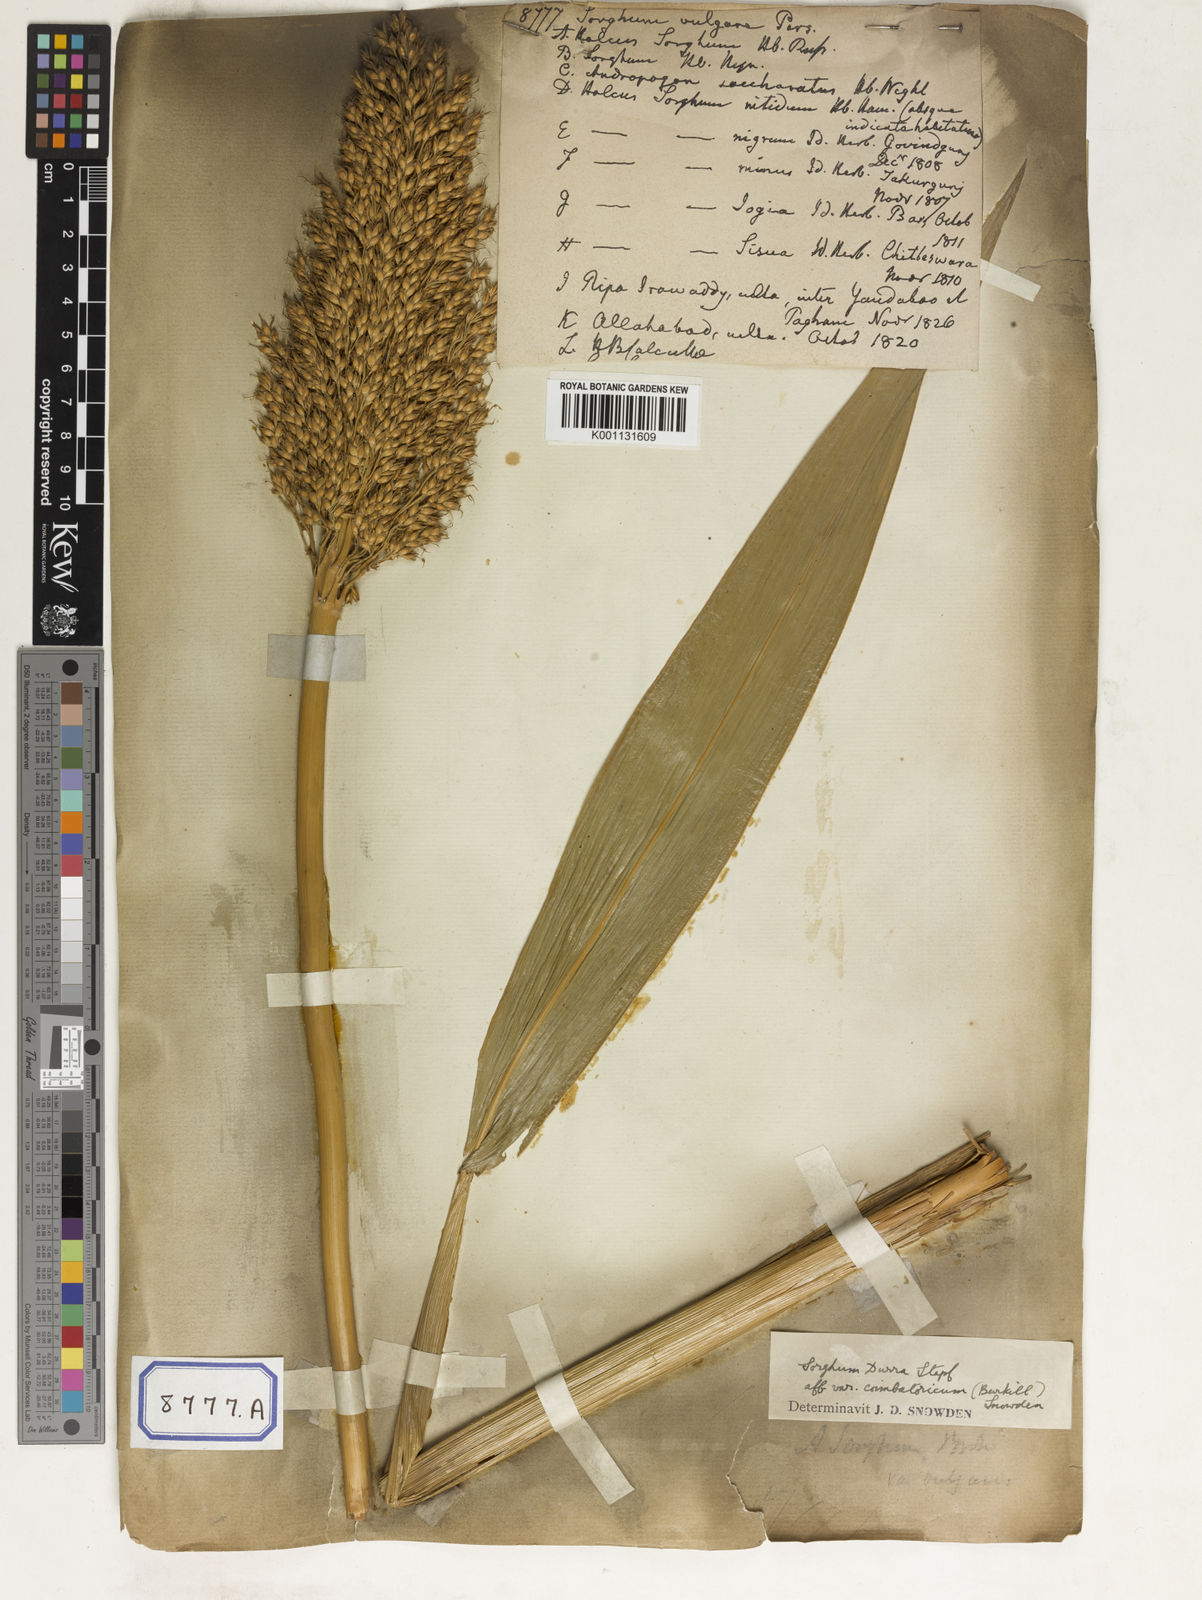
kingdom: Plantae
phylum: Tracheophyta
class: Liliopsida
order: Poales
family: Poaceae
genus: Sorghum
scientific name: Sorghum bicolor
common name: Sorghum
